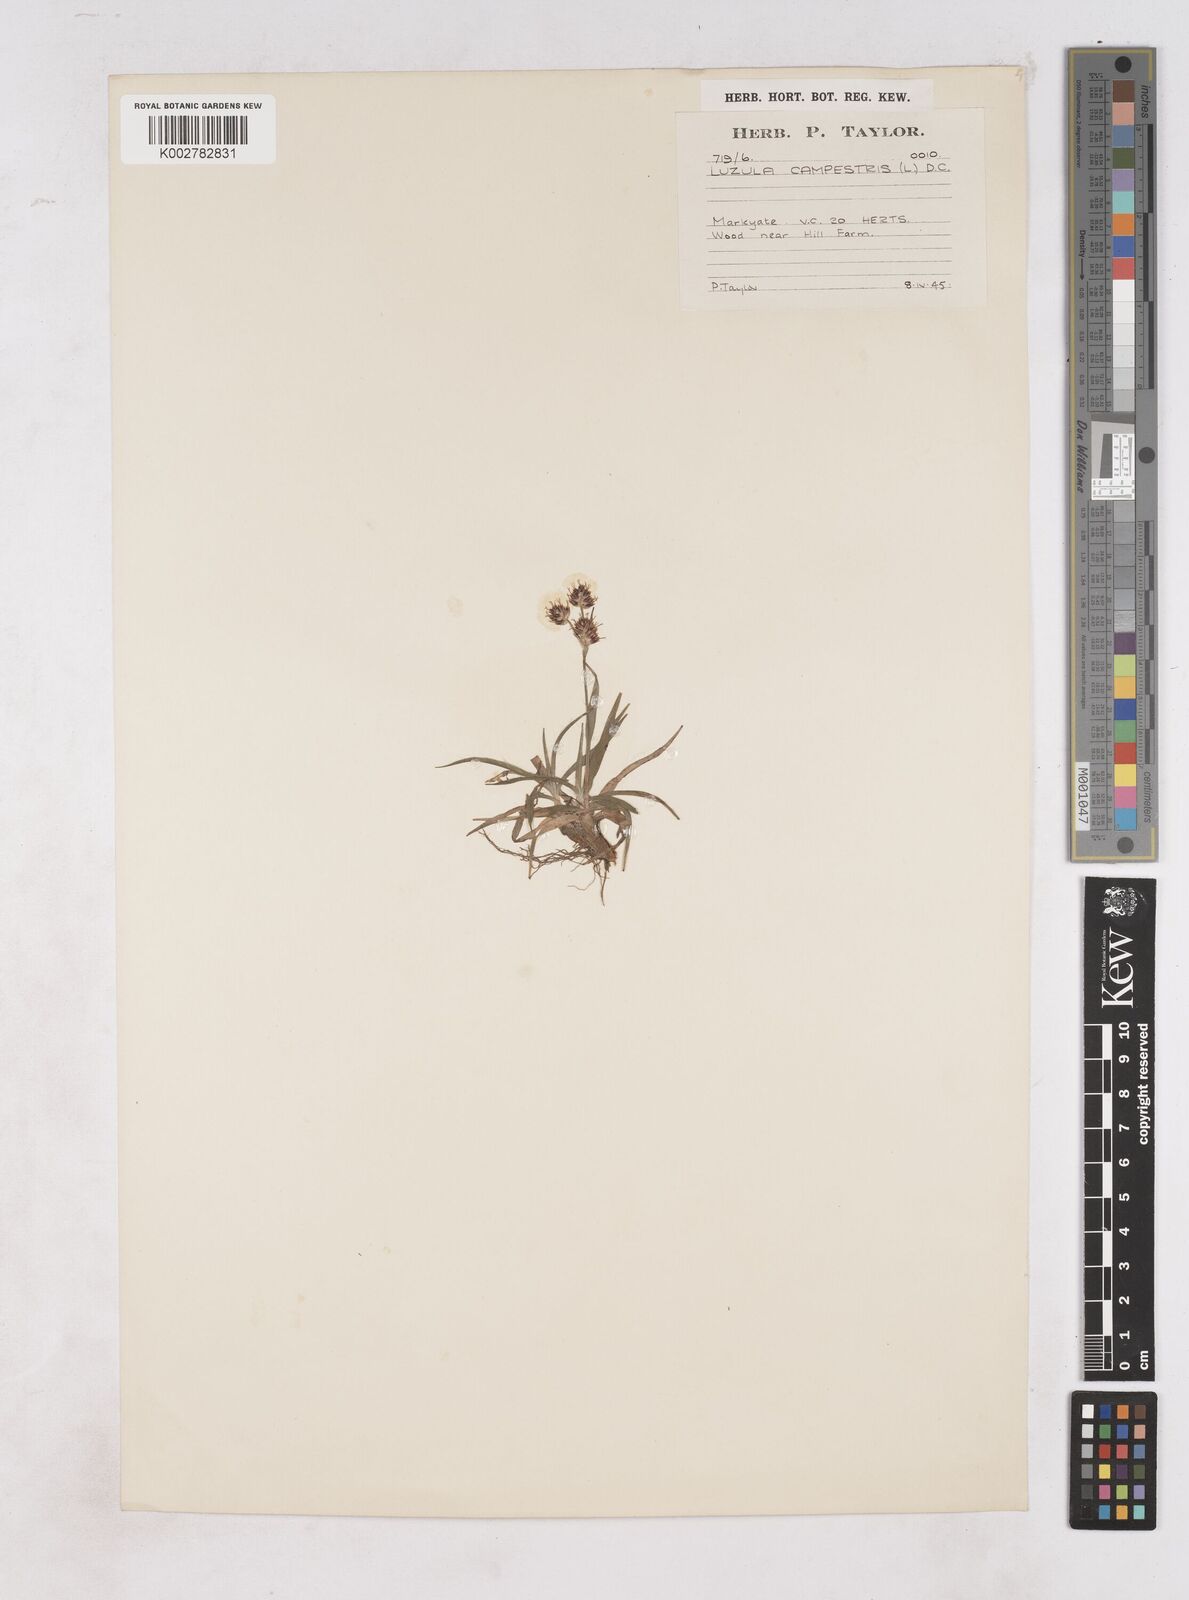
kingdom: Plantae
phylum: Tracheophyta
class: Liliopsida
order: Poales
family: Juncaceae
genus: Luzula
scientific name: Luzula campestris
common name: Field wood-rush
